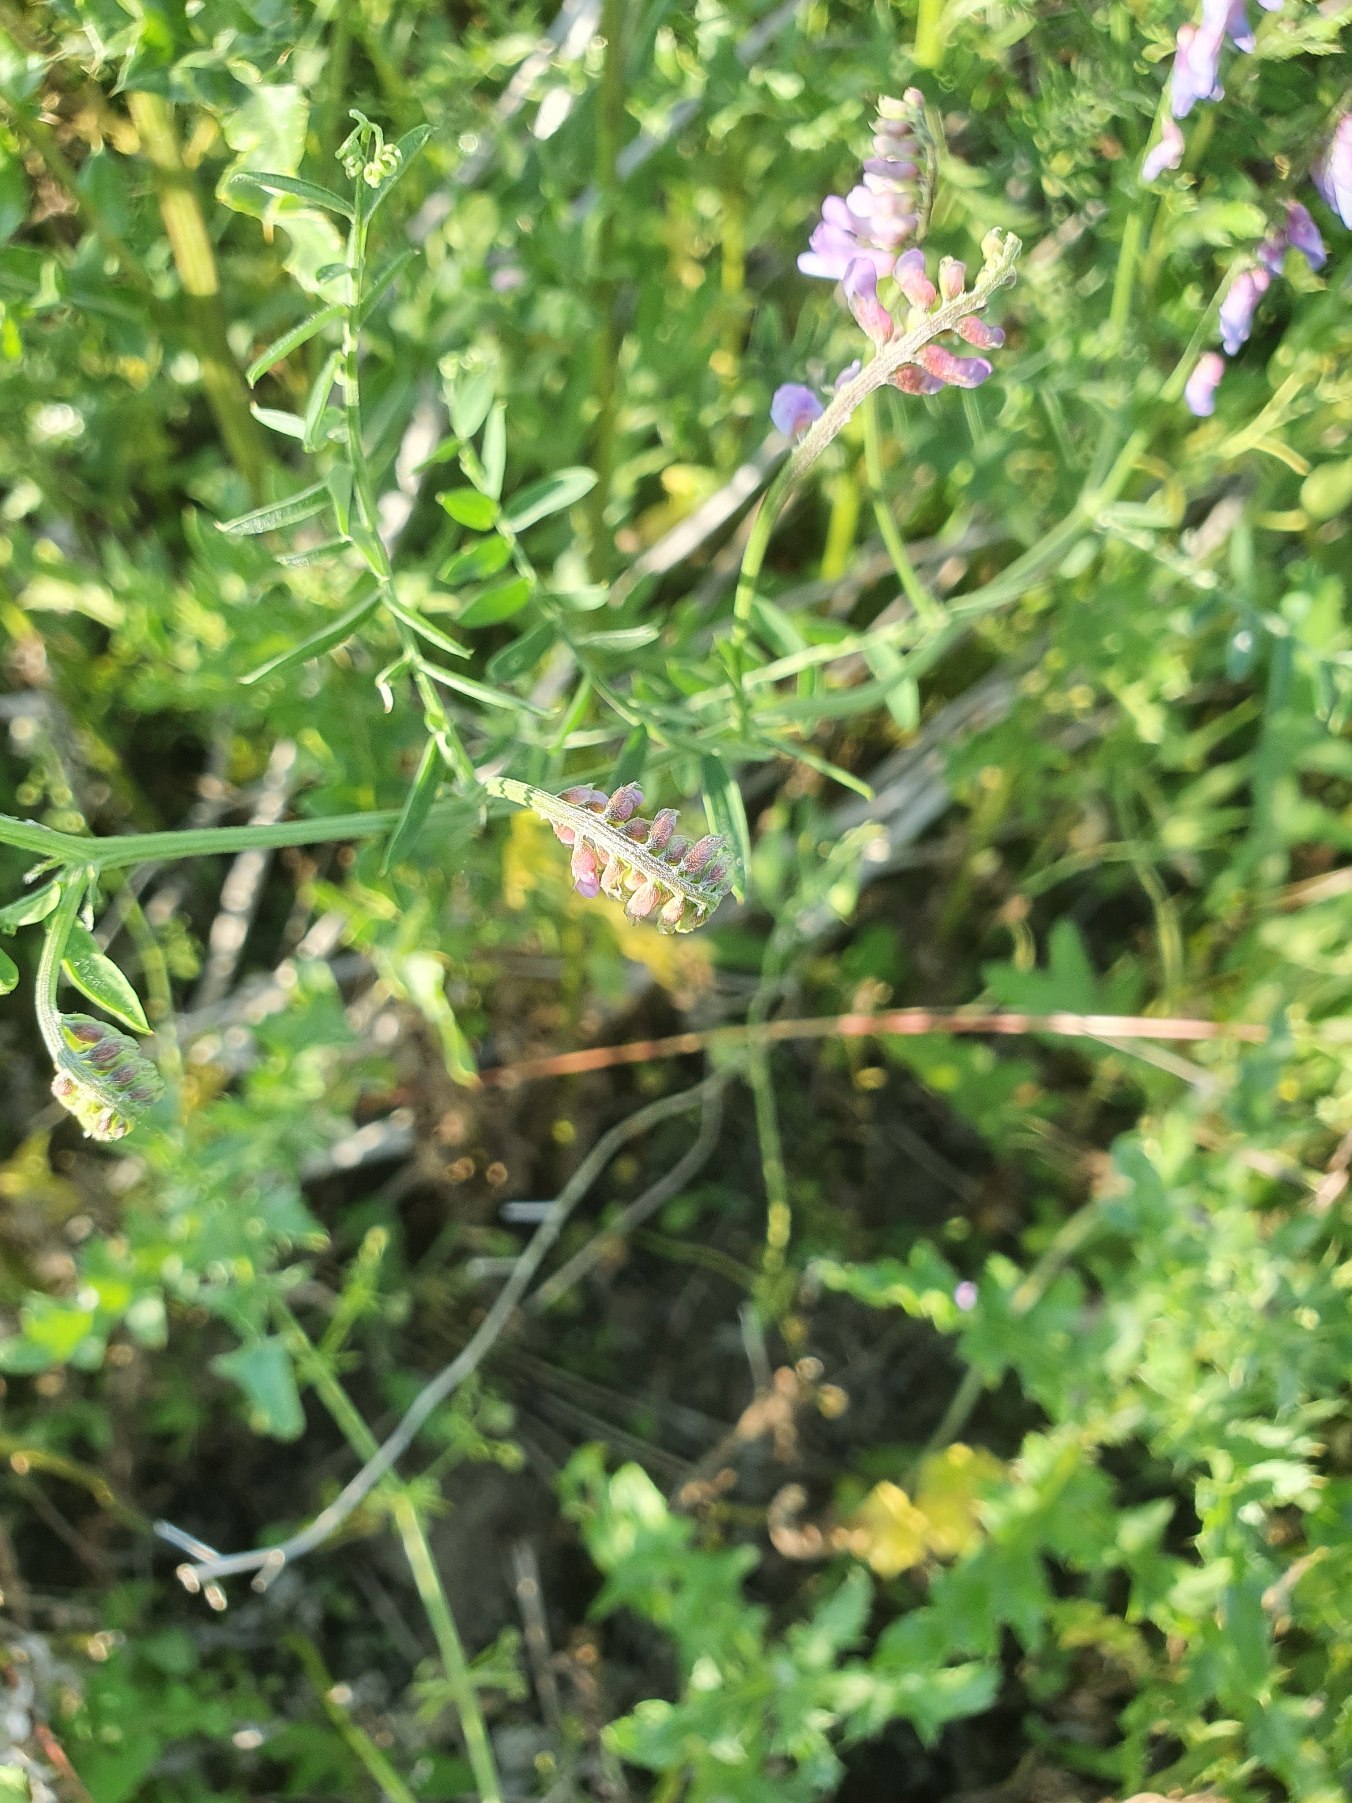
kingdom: Plantae
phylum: Tracheophyta
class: Magnoliopsida
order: Fabales
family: Fabaceae
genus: Vicia
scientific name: Vicia cracca
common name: Muse-vikke
